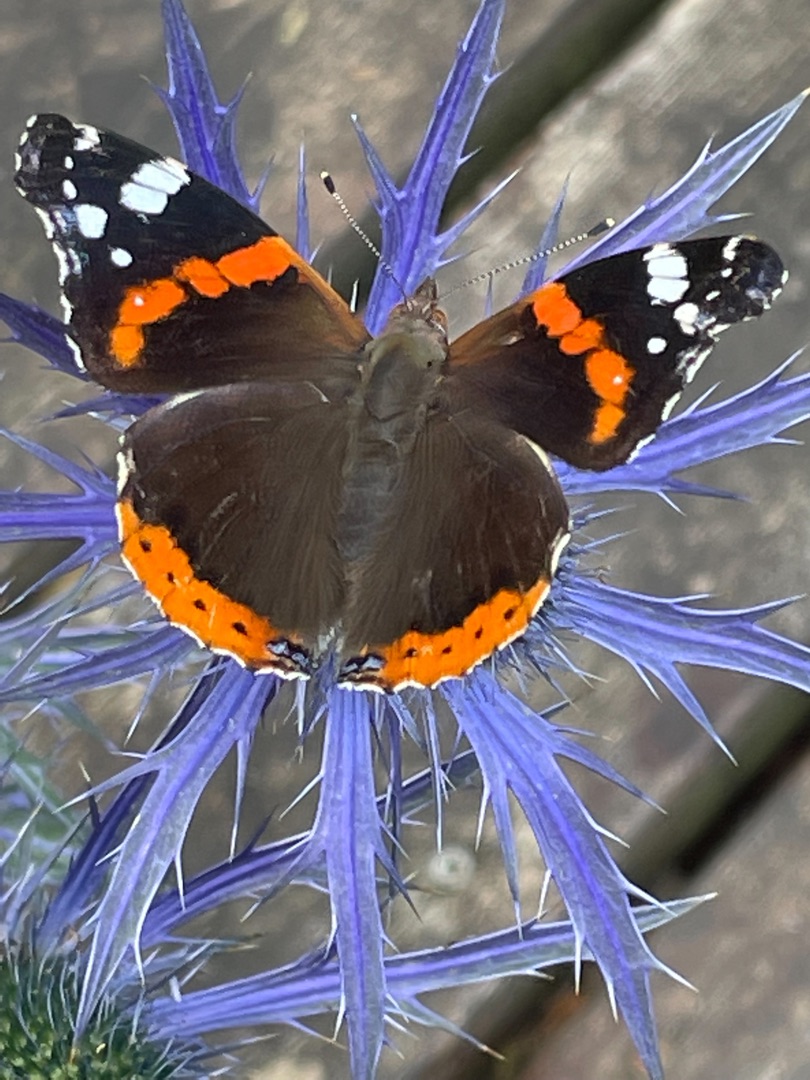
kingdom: Animalia
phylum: Arthropoda
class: Insecta
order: Lepidoptera
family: Nymphalidae
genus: Vanessa
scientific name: Vanessa atalanta
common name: Admiral
